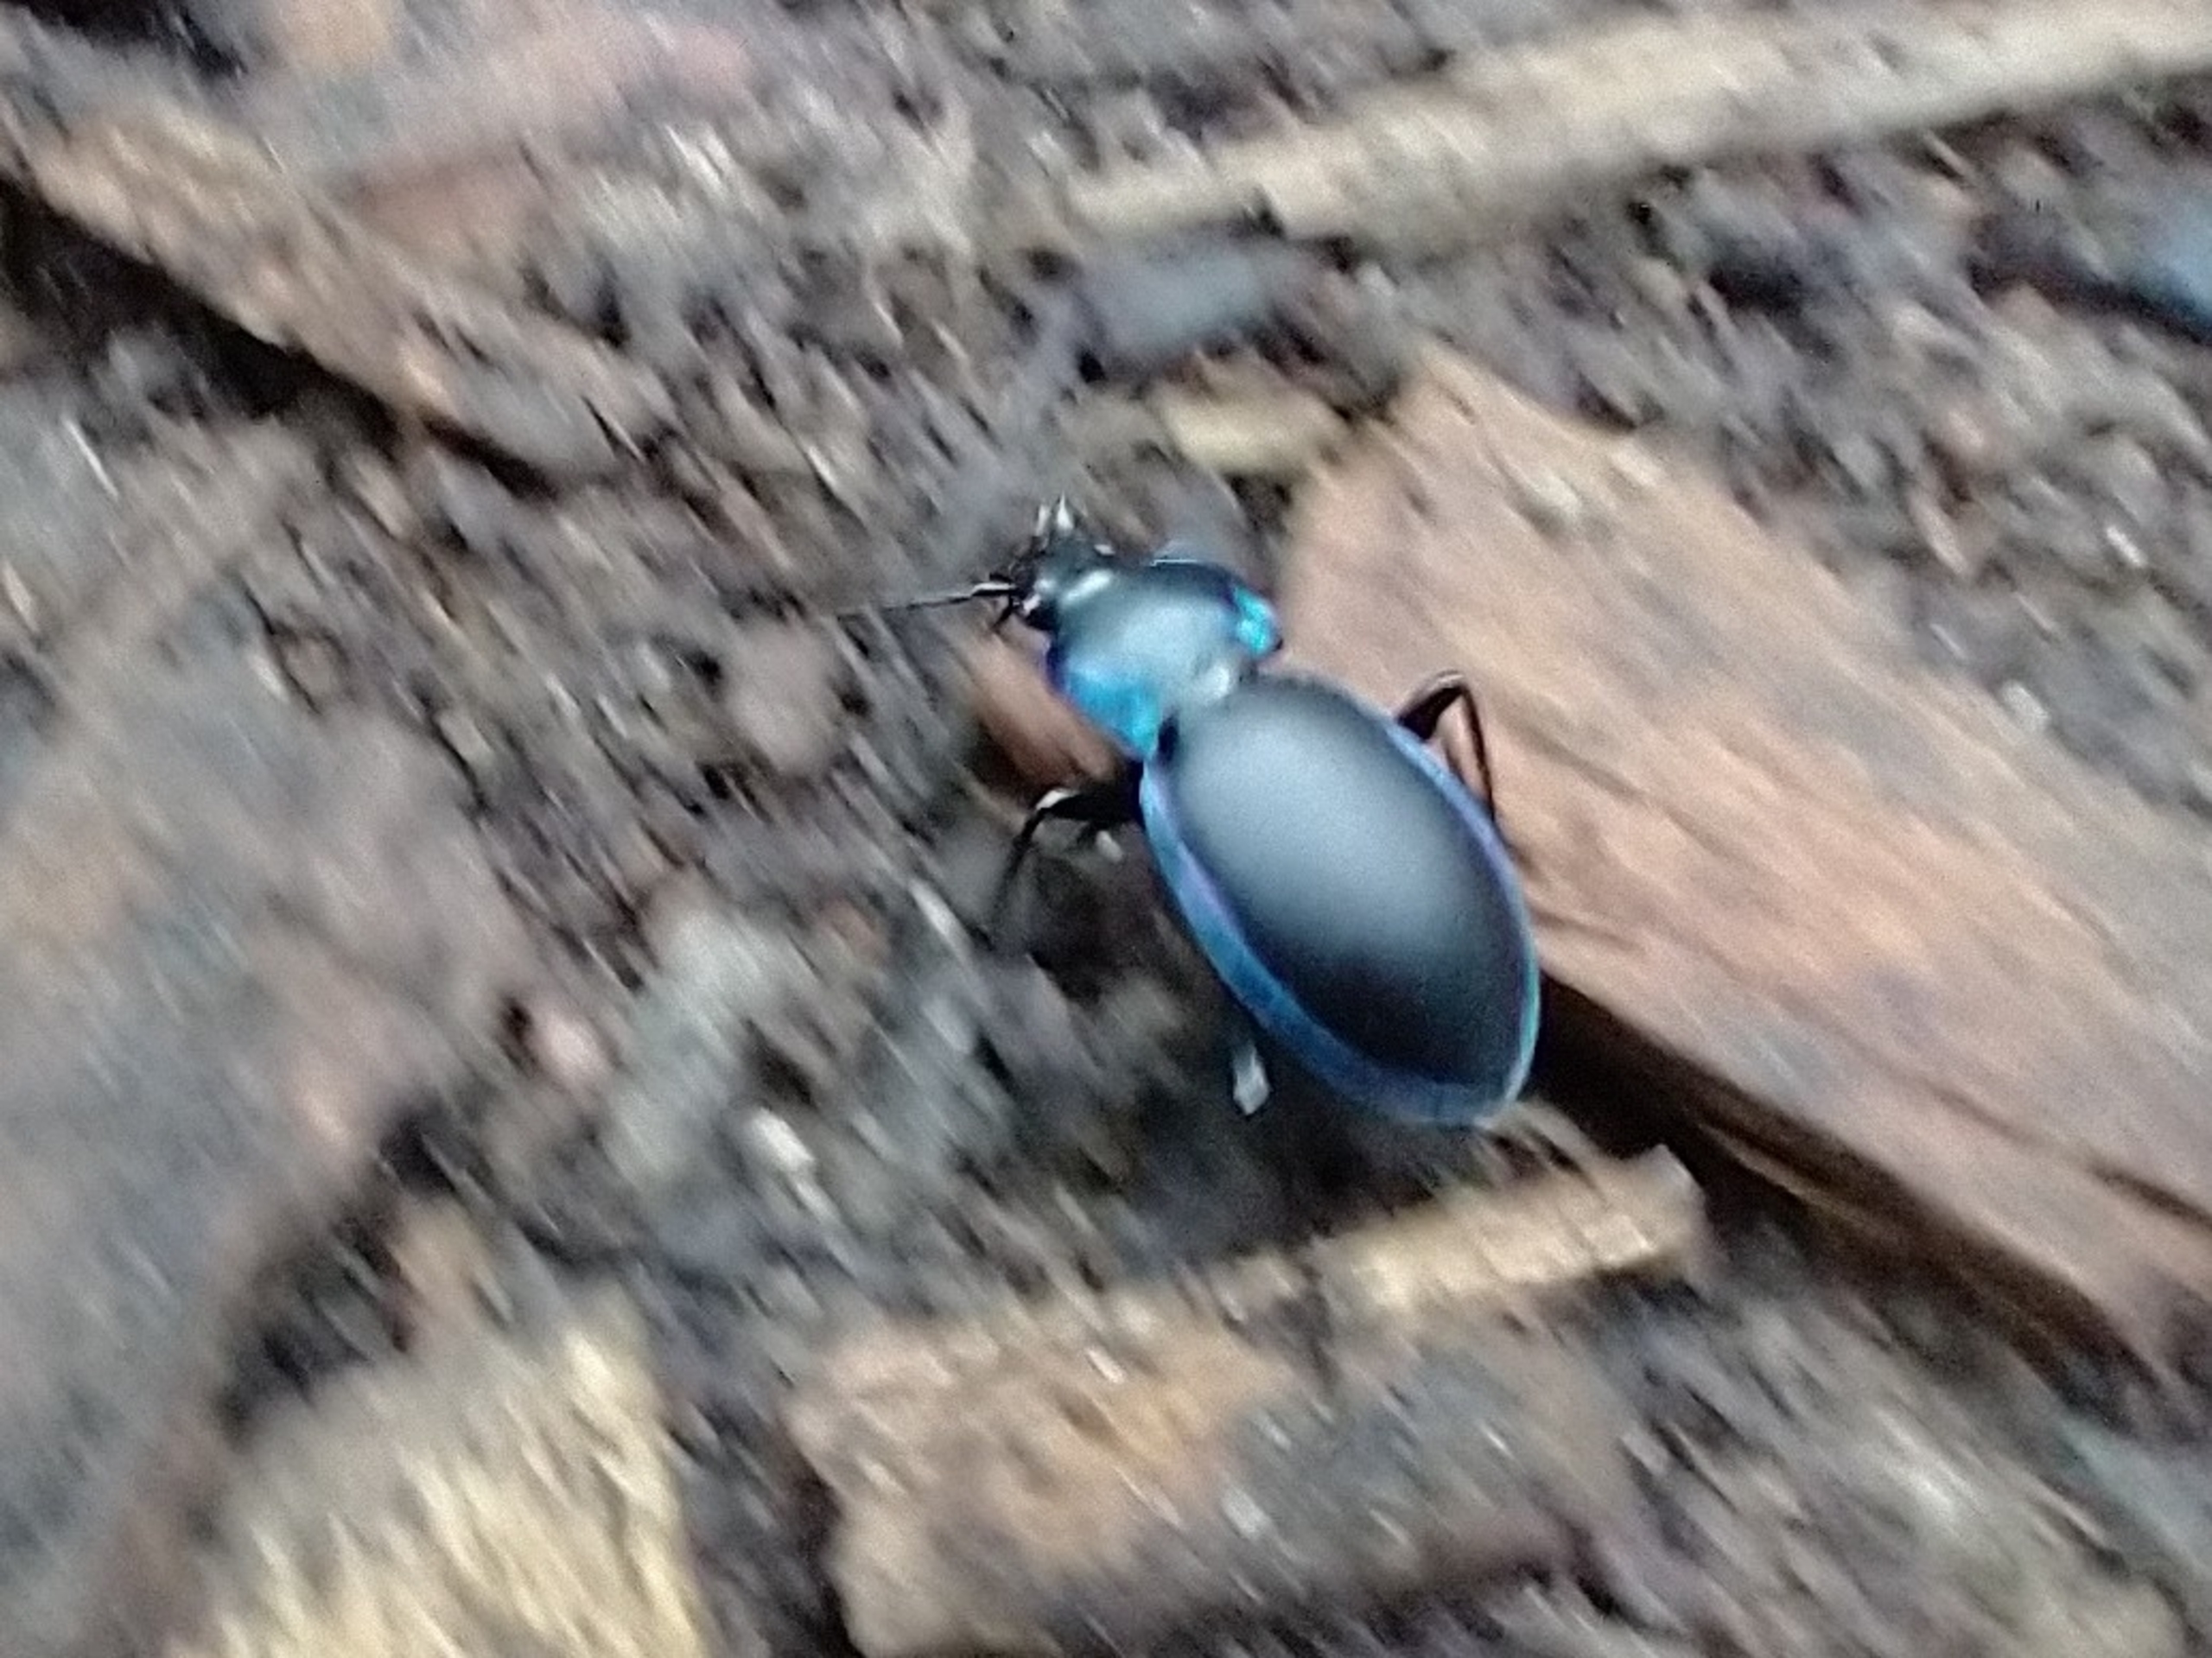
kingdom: Animalia
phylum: Arthropoda
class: Insecta
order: Coleoptera
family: Carabidae
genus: Carabus
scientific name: Carabus violaceus
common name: Violetrandet løber
